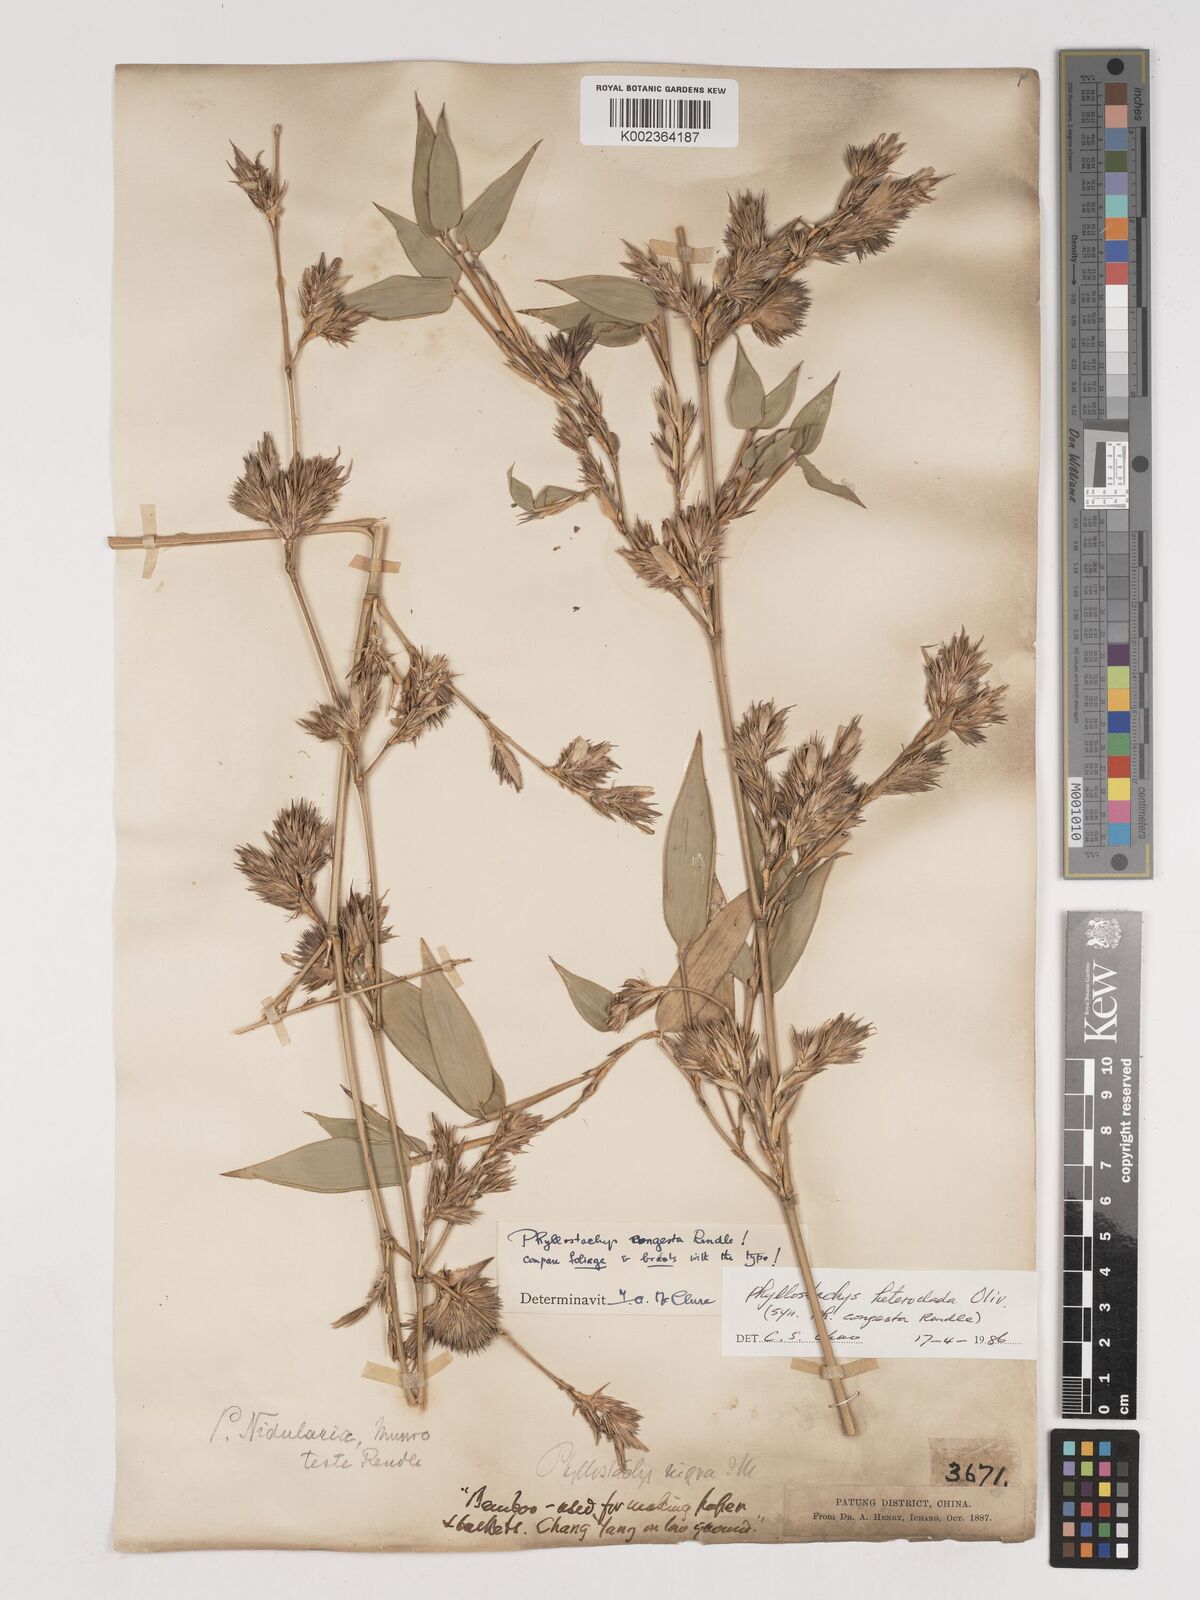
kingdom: Plantae
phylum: Tracheophyta
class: Liliopsida
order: Poales
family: Poaceae
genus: Phyllostachys
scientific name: Phyllostachys heteroclada
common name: Fishscale bamboo
